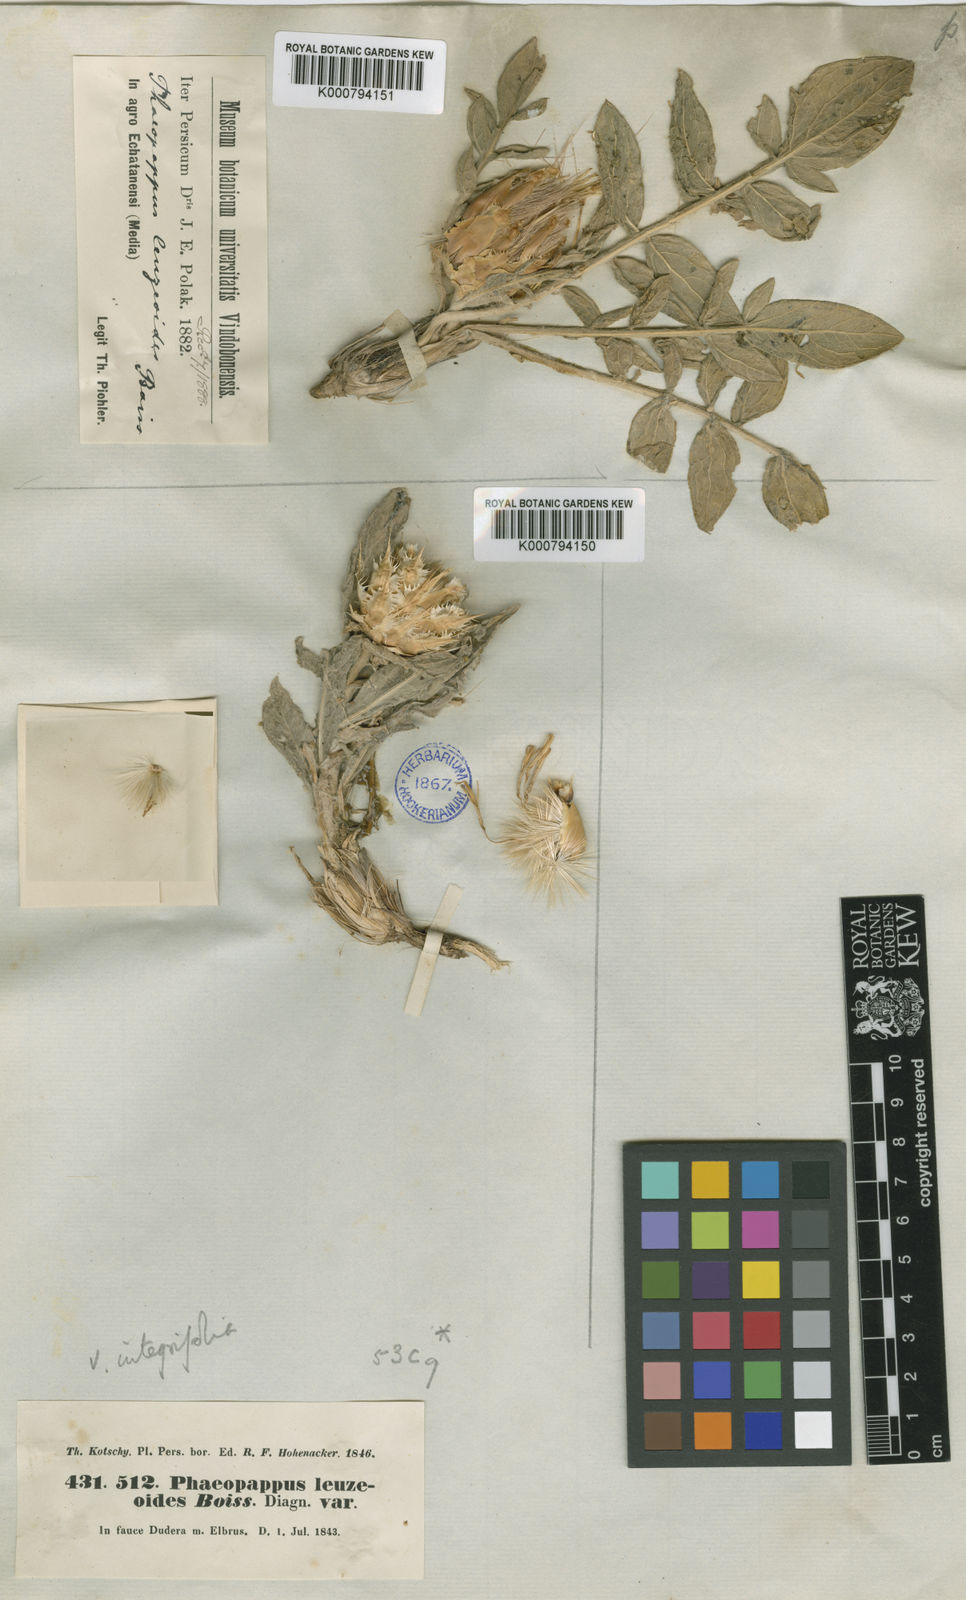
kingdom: Plantae
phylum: Tracheophyta
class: Magnoliopsida
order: Asterales
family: Asteraceae
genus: Centaurea
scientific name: Centaurea aucheri
